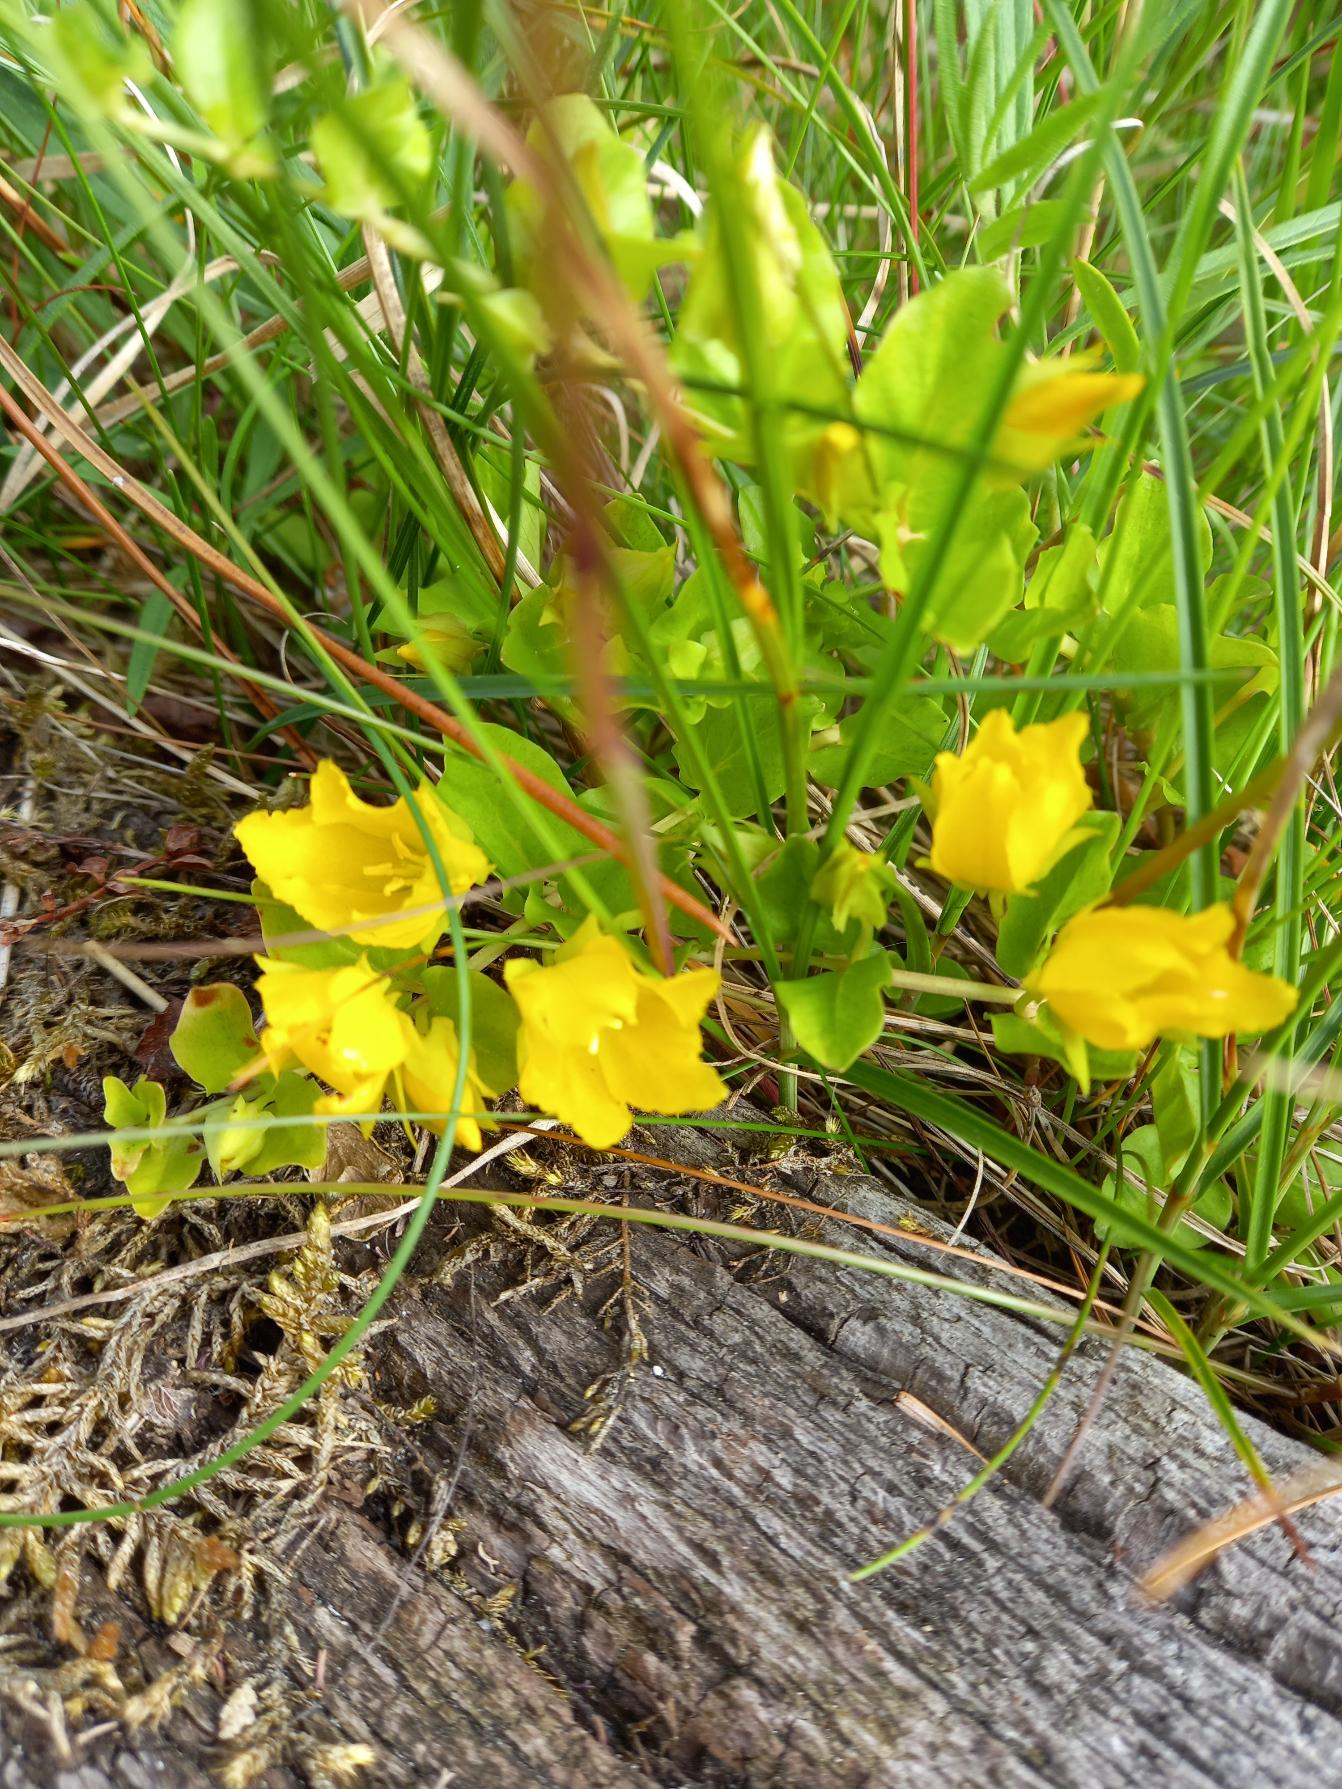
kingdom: Plantae
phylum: Tracheophyta
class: Magnoliopsida
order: Ericales
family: Primulaceae
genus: Lysimachia
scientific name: Lysimachia nummularia
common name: Pengebladet fredløs
